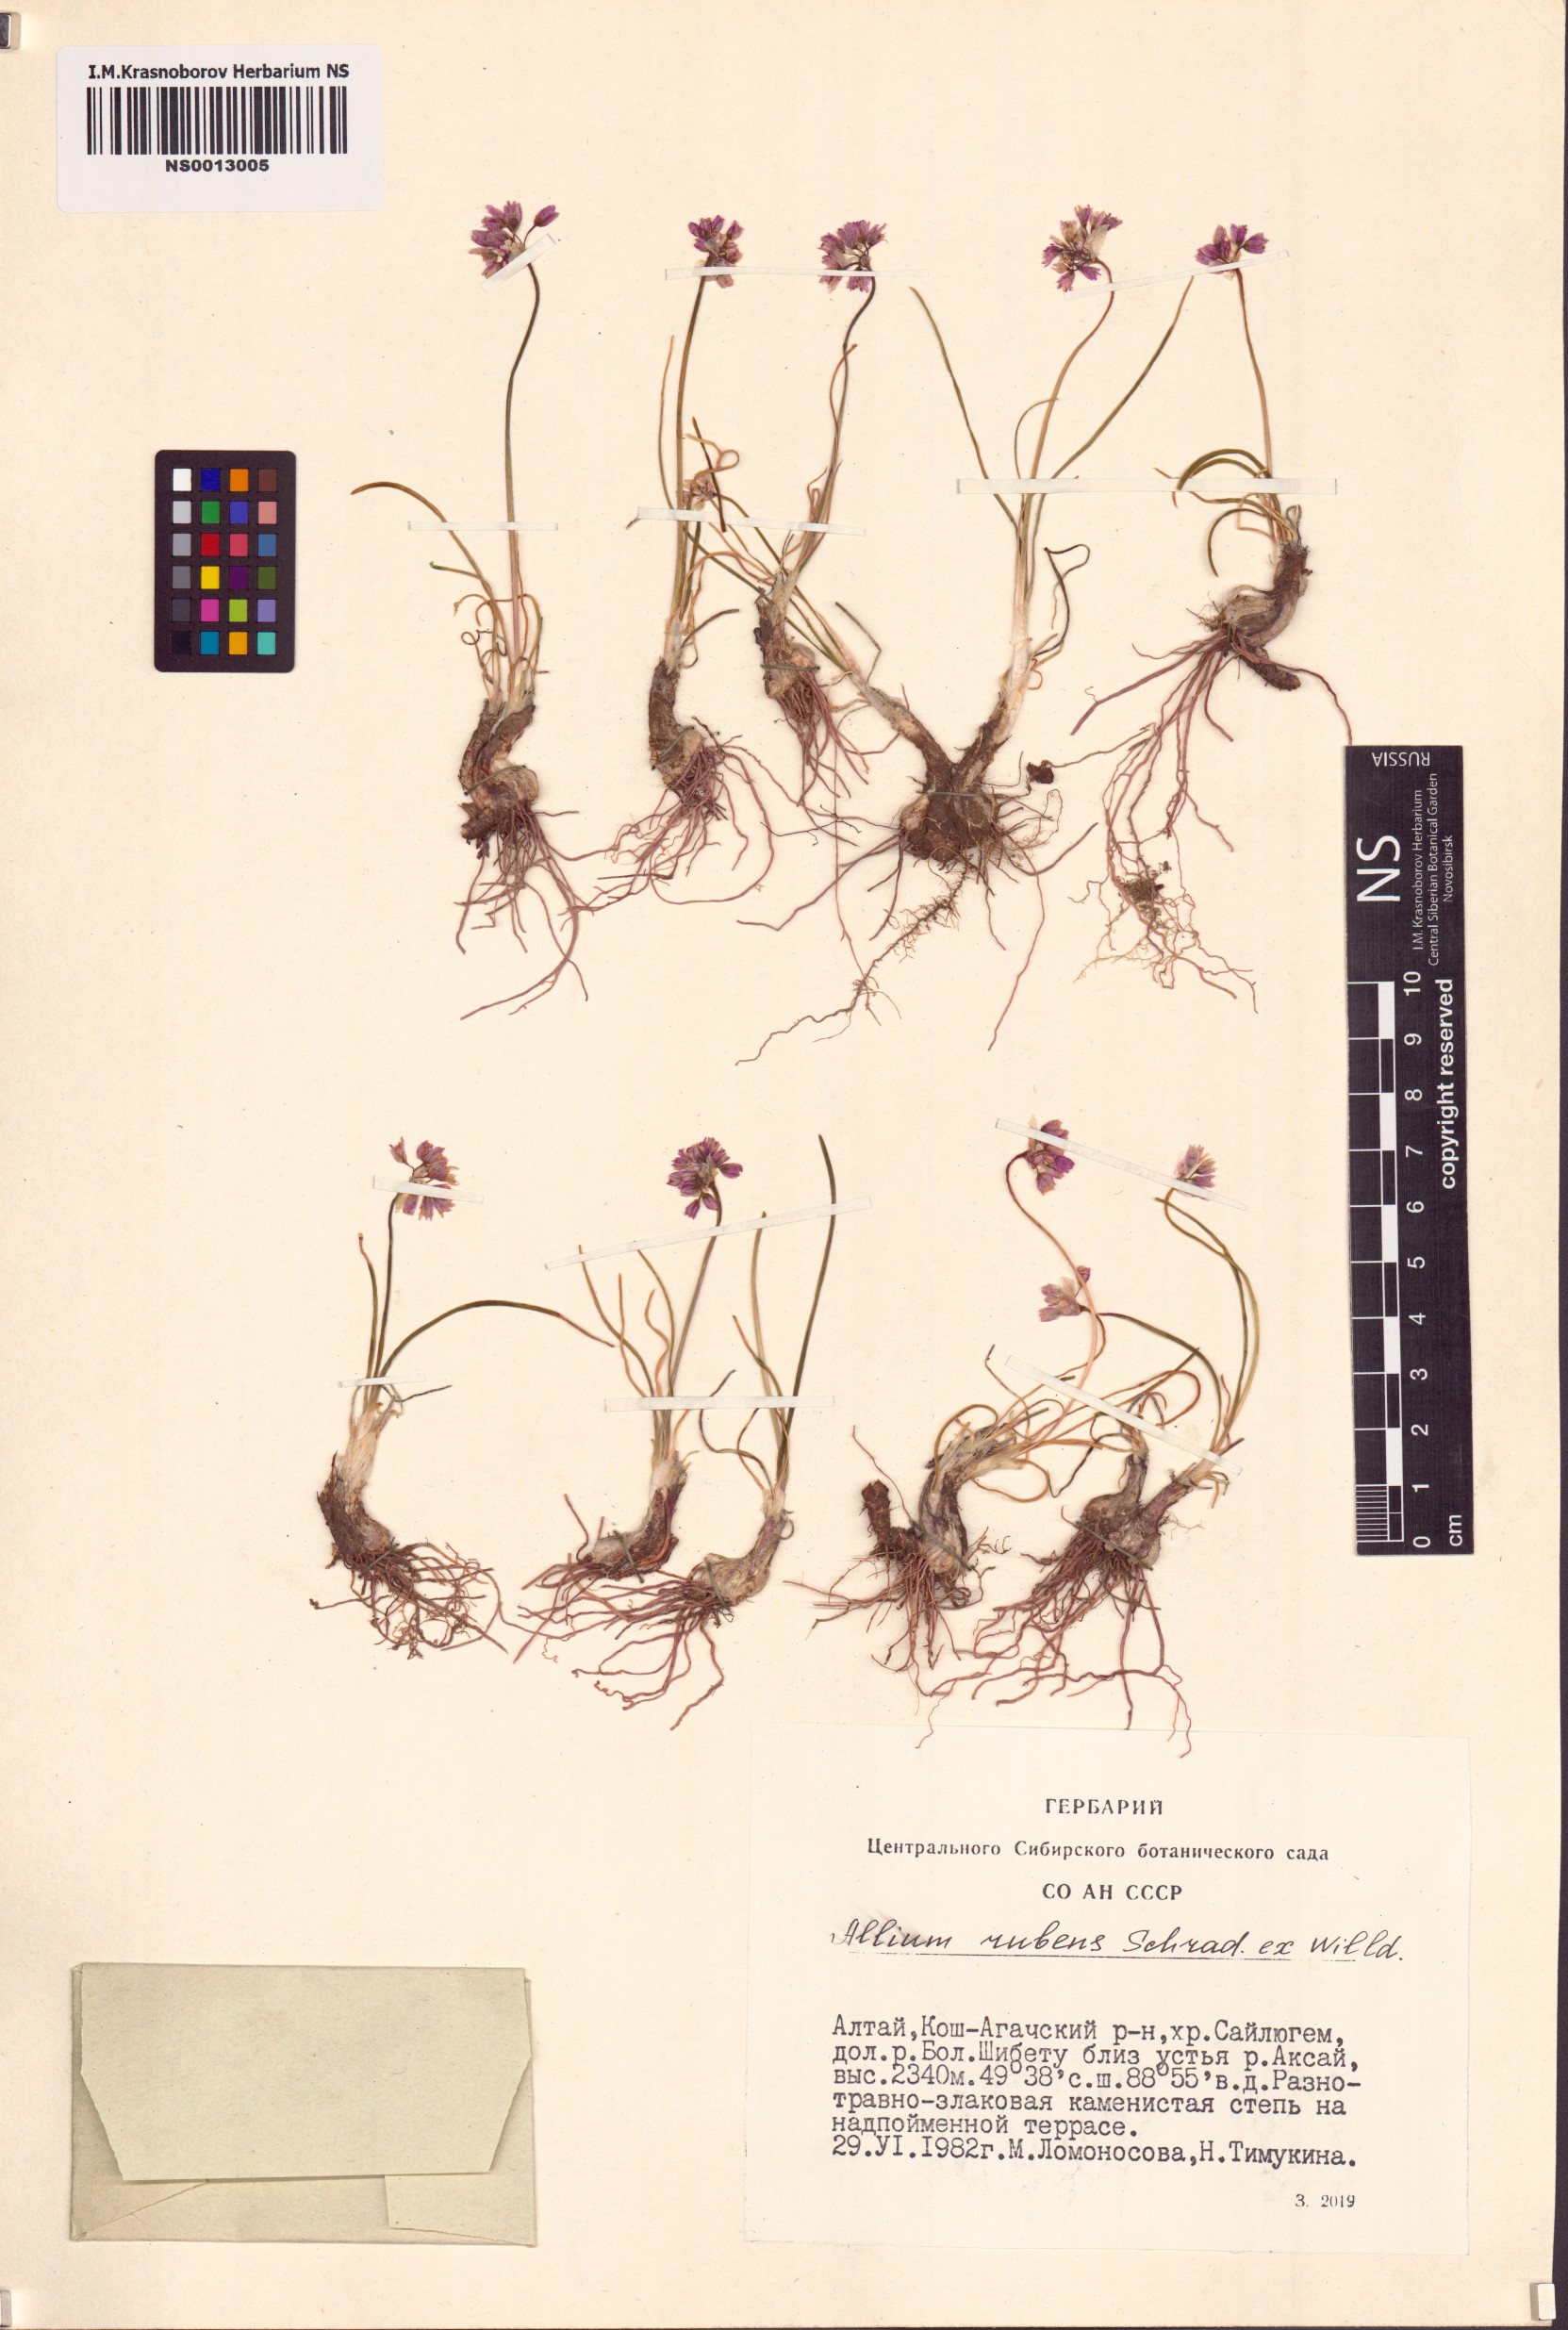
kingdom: Plantae
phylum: Tracheophyta
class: Liliopsida
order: Asparagales
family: Amaryllidaceae
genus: Allium
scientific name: Allium rubens
